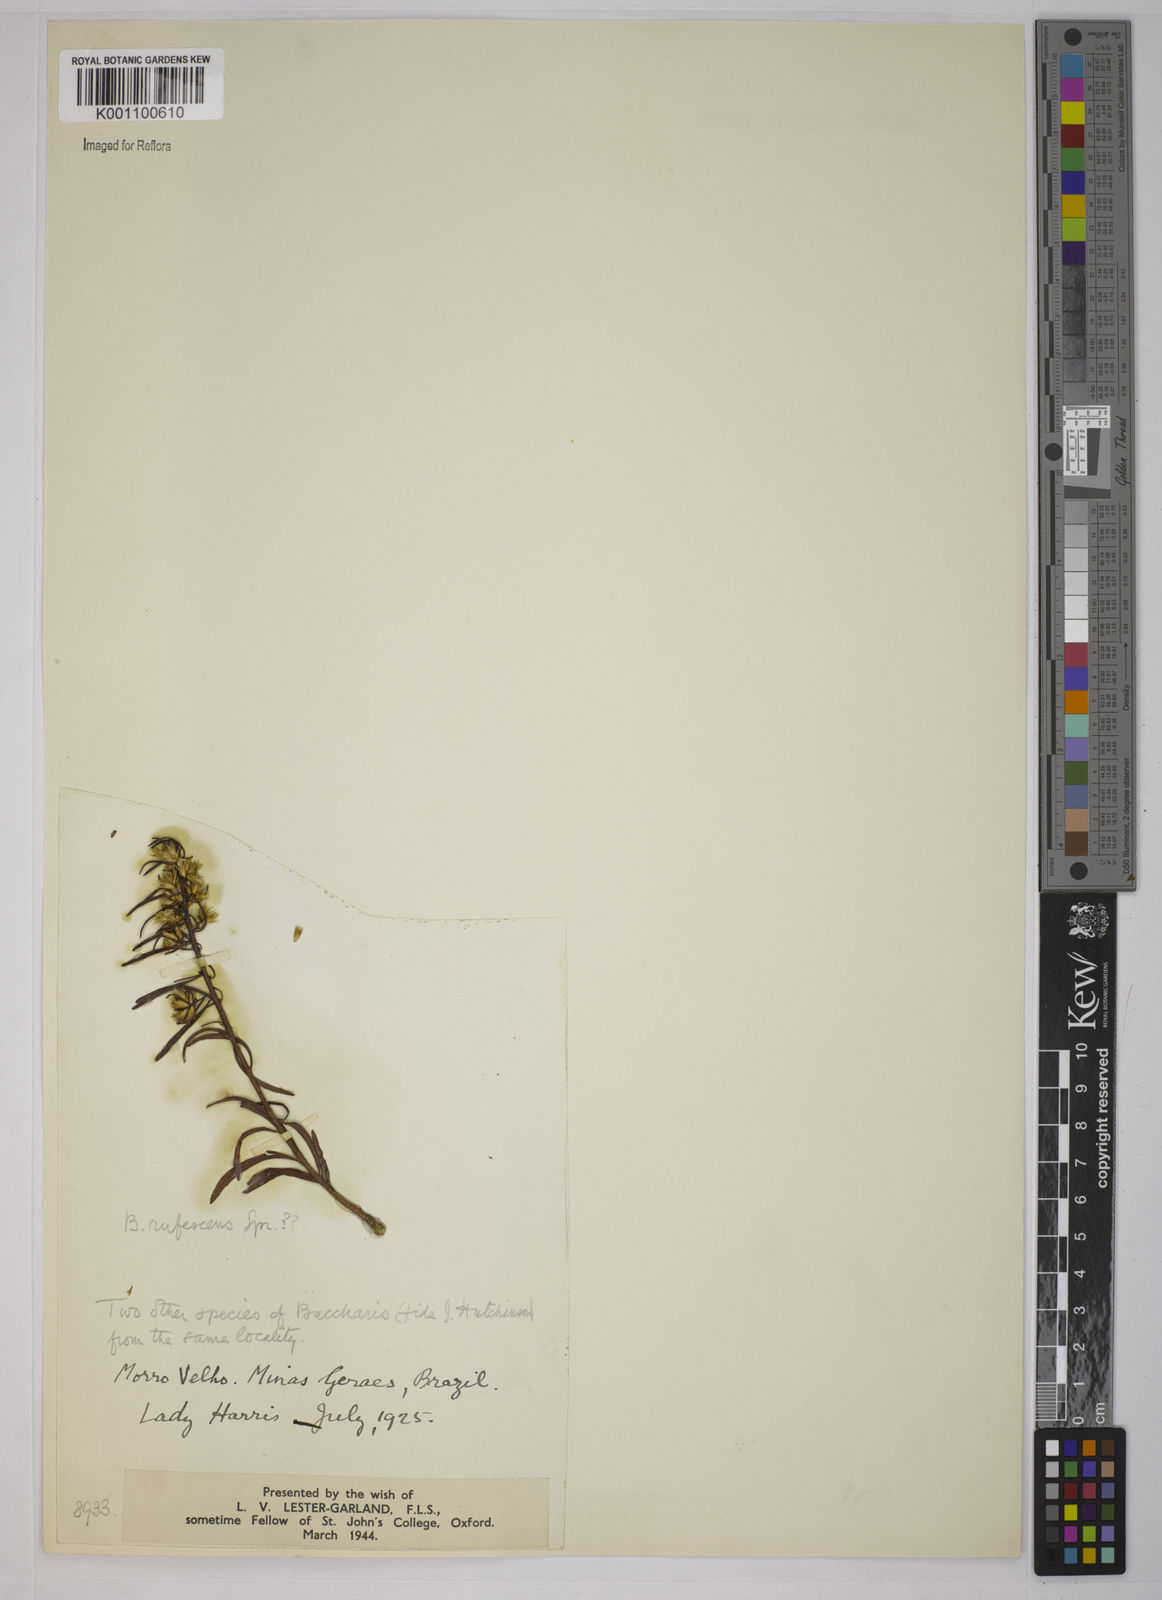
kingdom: Plantae
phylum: Tracheophyta
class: Magnoliopsida
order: Asterales
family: Asteraceae
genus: Baccharis
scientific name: Baccharis rufescens
